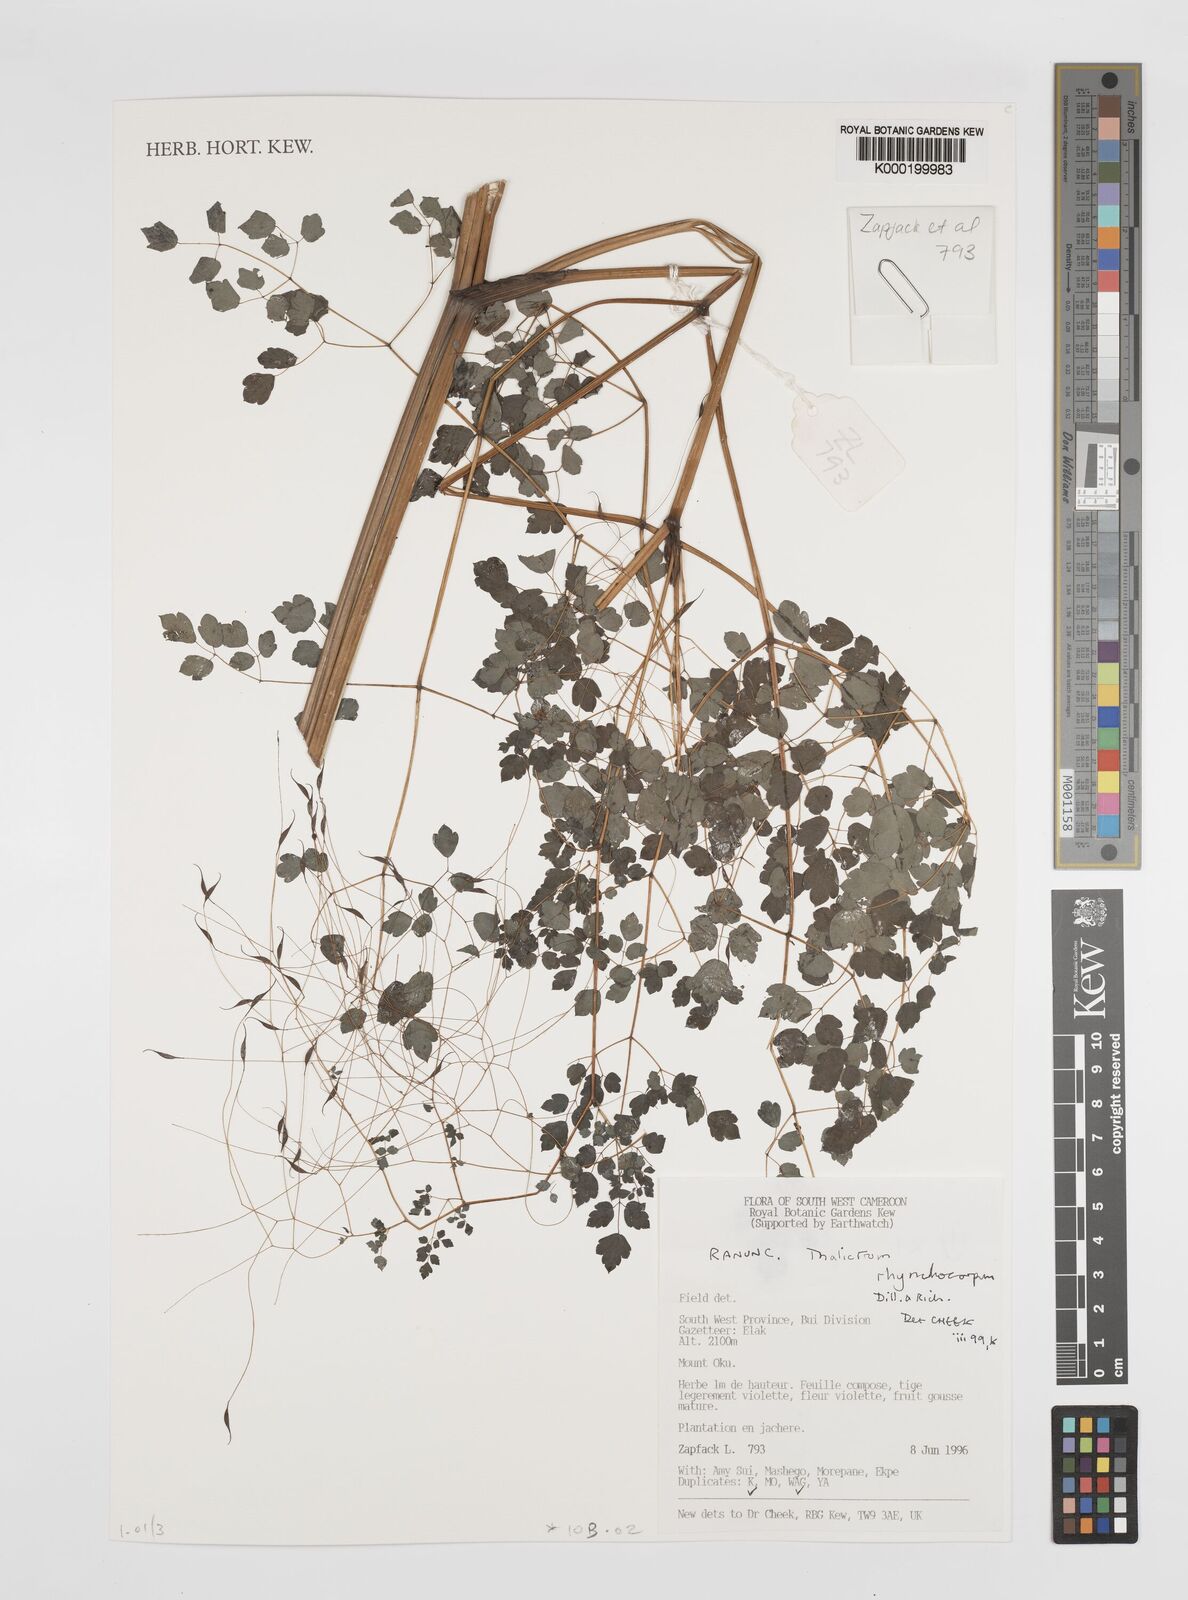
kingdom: Plantae
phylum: Tracheophyta
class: Magnoliopsida
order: Ranunculales
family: Ranunculaceae
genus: Thalictrum
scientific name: Thalictrum rhynchocarpum
